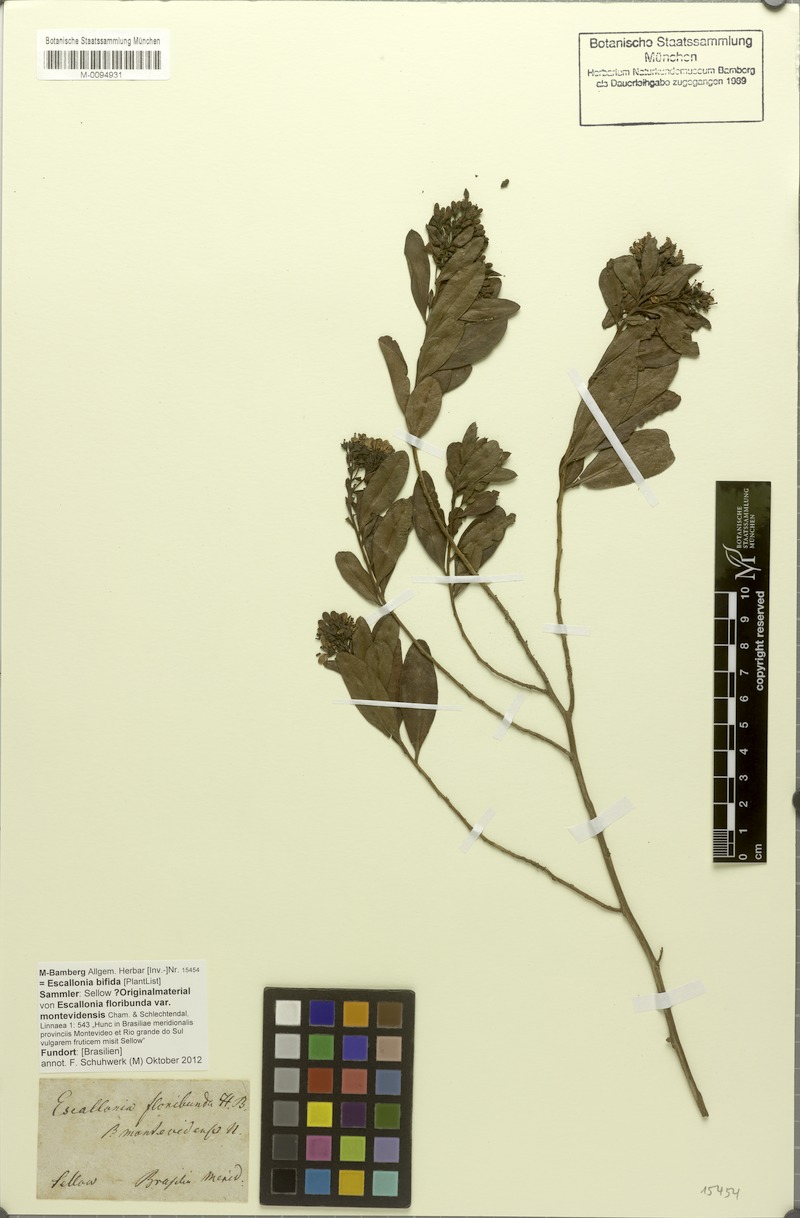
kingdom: Plantae
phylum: Tracheophyta
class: Magnoliopsida
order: Escalloniales
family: Escalloniaceae
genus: Escallonia
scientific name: Escallonia bifida
